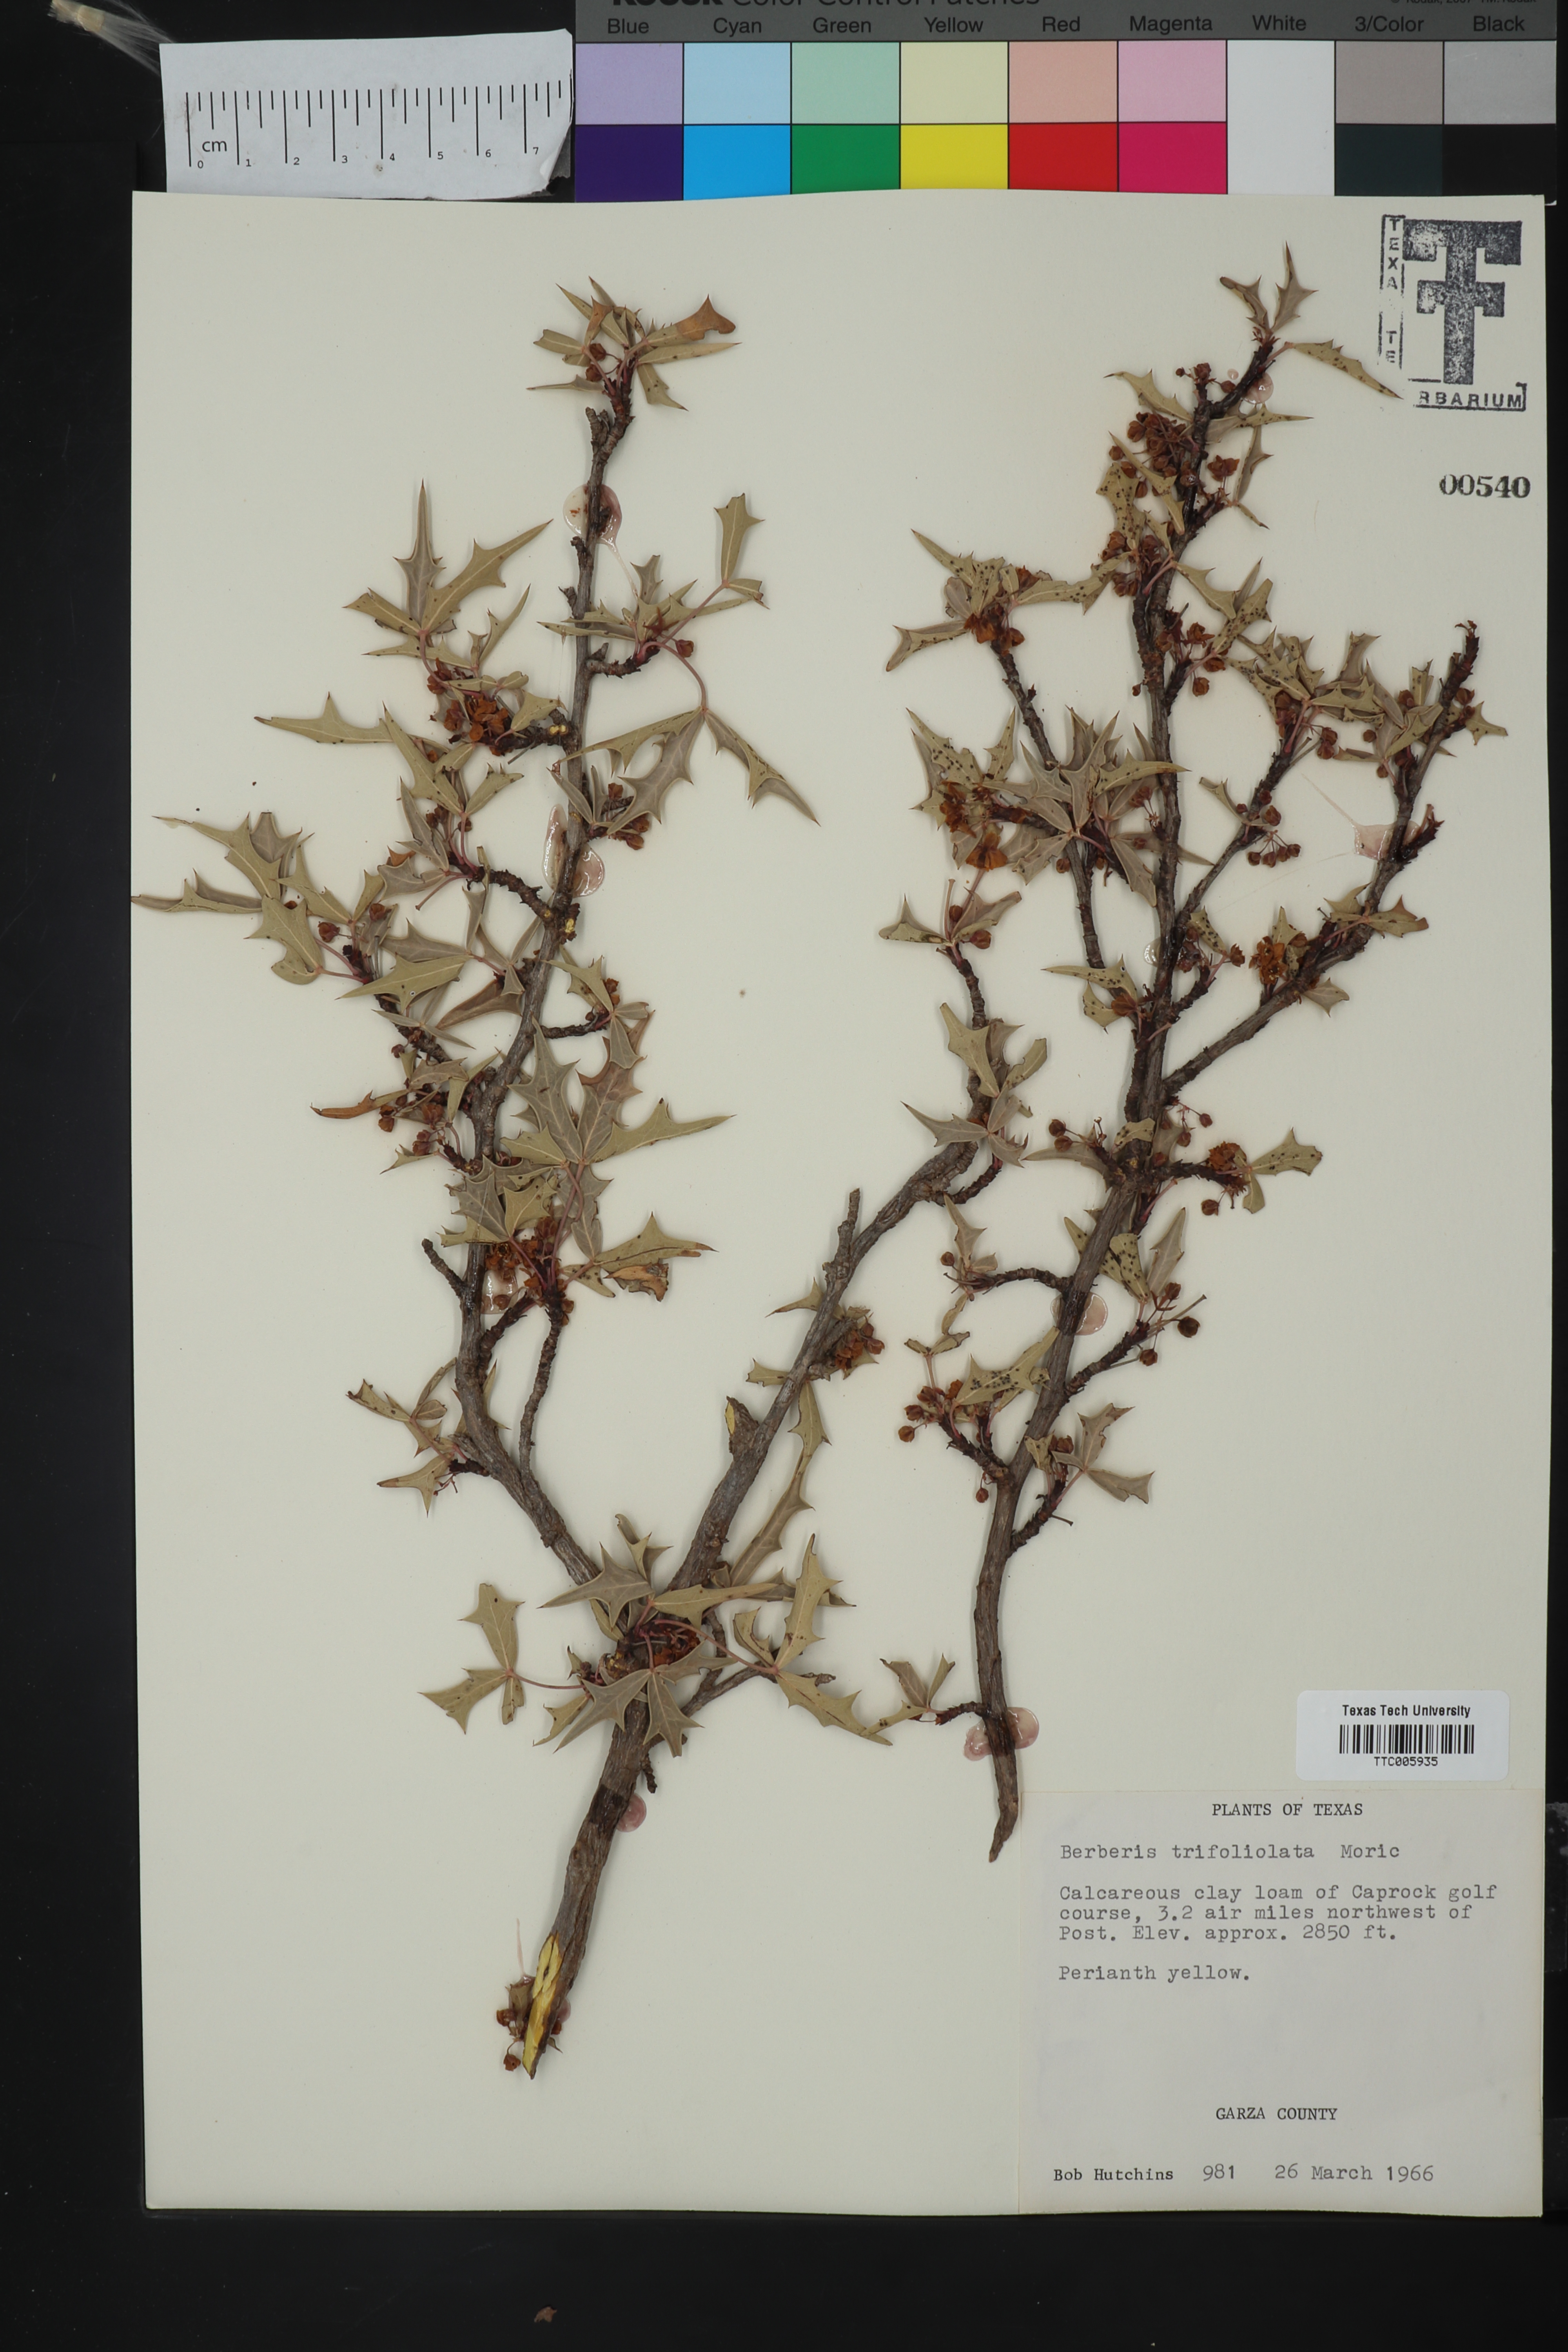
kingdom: Plantae
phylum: Tracheophyta
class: Magnoliopsida
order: Ranunculales
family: Berberidaceae
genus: Alloberberis
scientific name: Alloberberis trifoliolata
